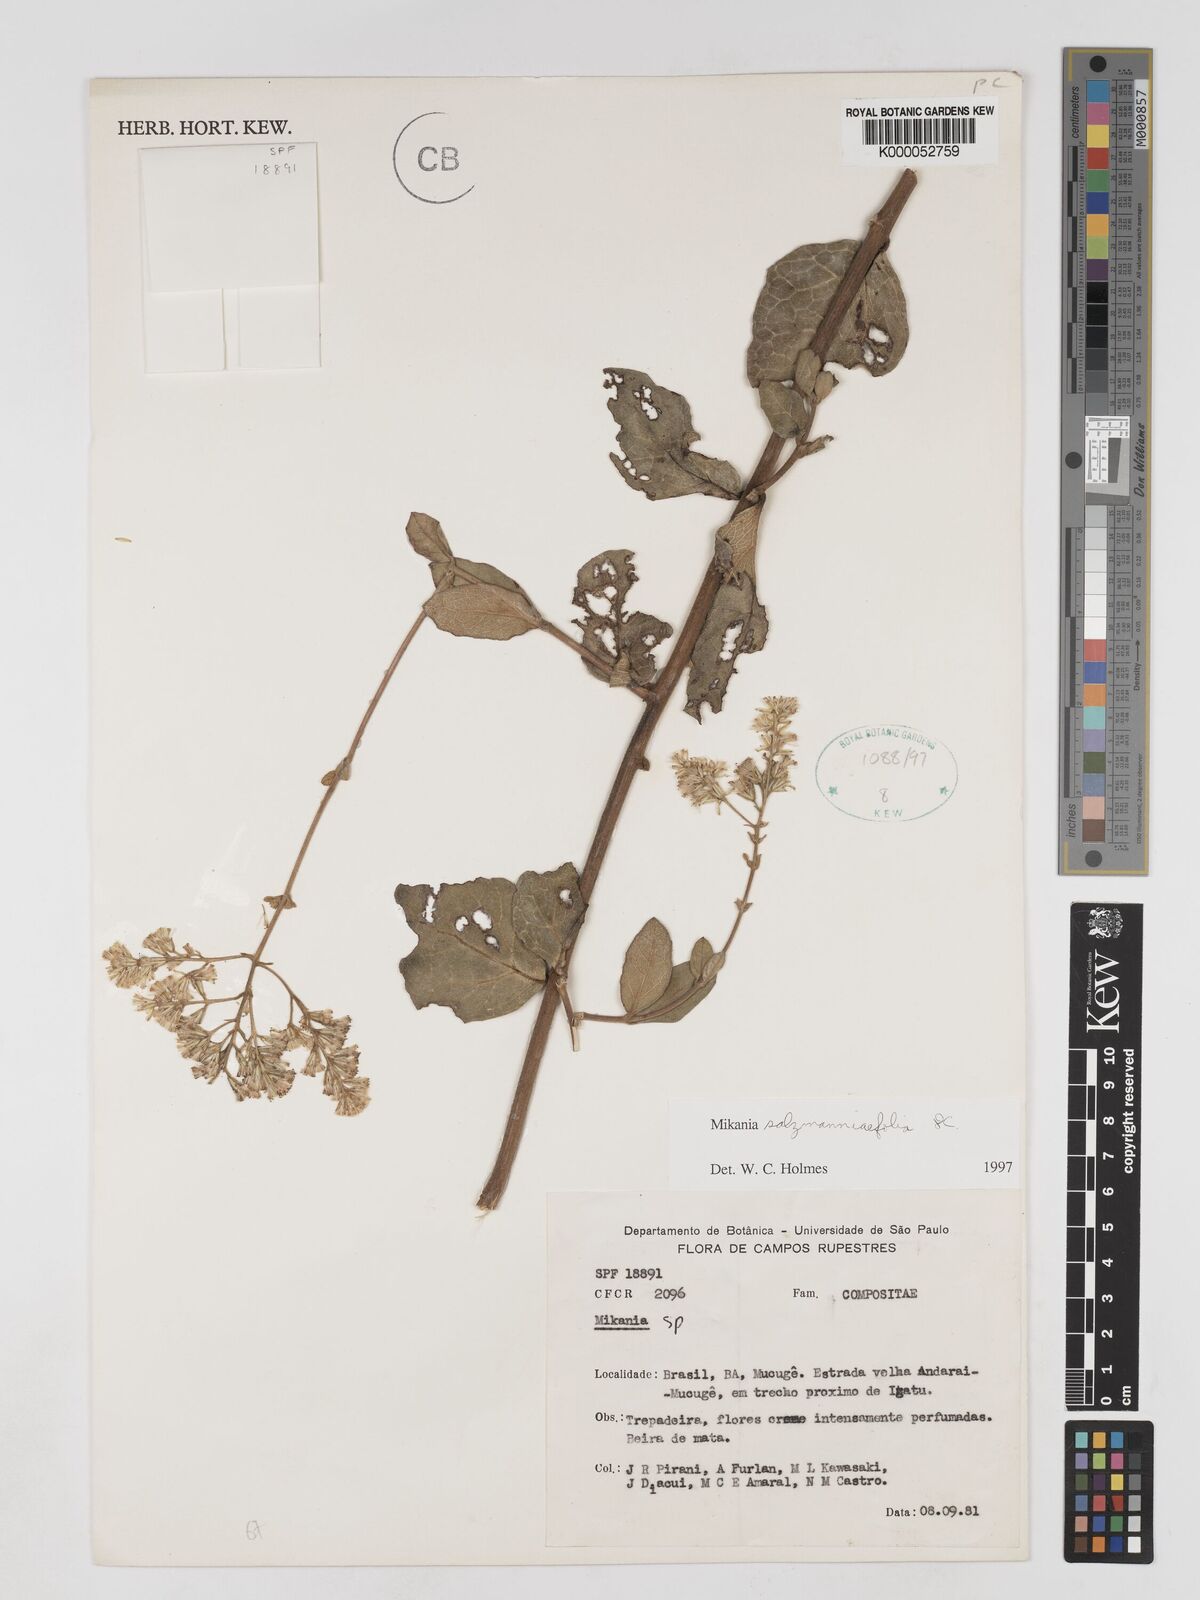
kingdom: Plantae
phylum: Tracheophyta
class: Magnoliopsida
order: Asterales
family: Asteraceae
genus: Mikania
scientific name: Mikania salzmanniifolia
